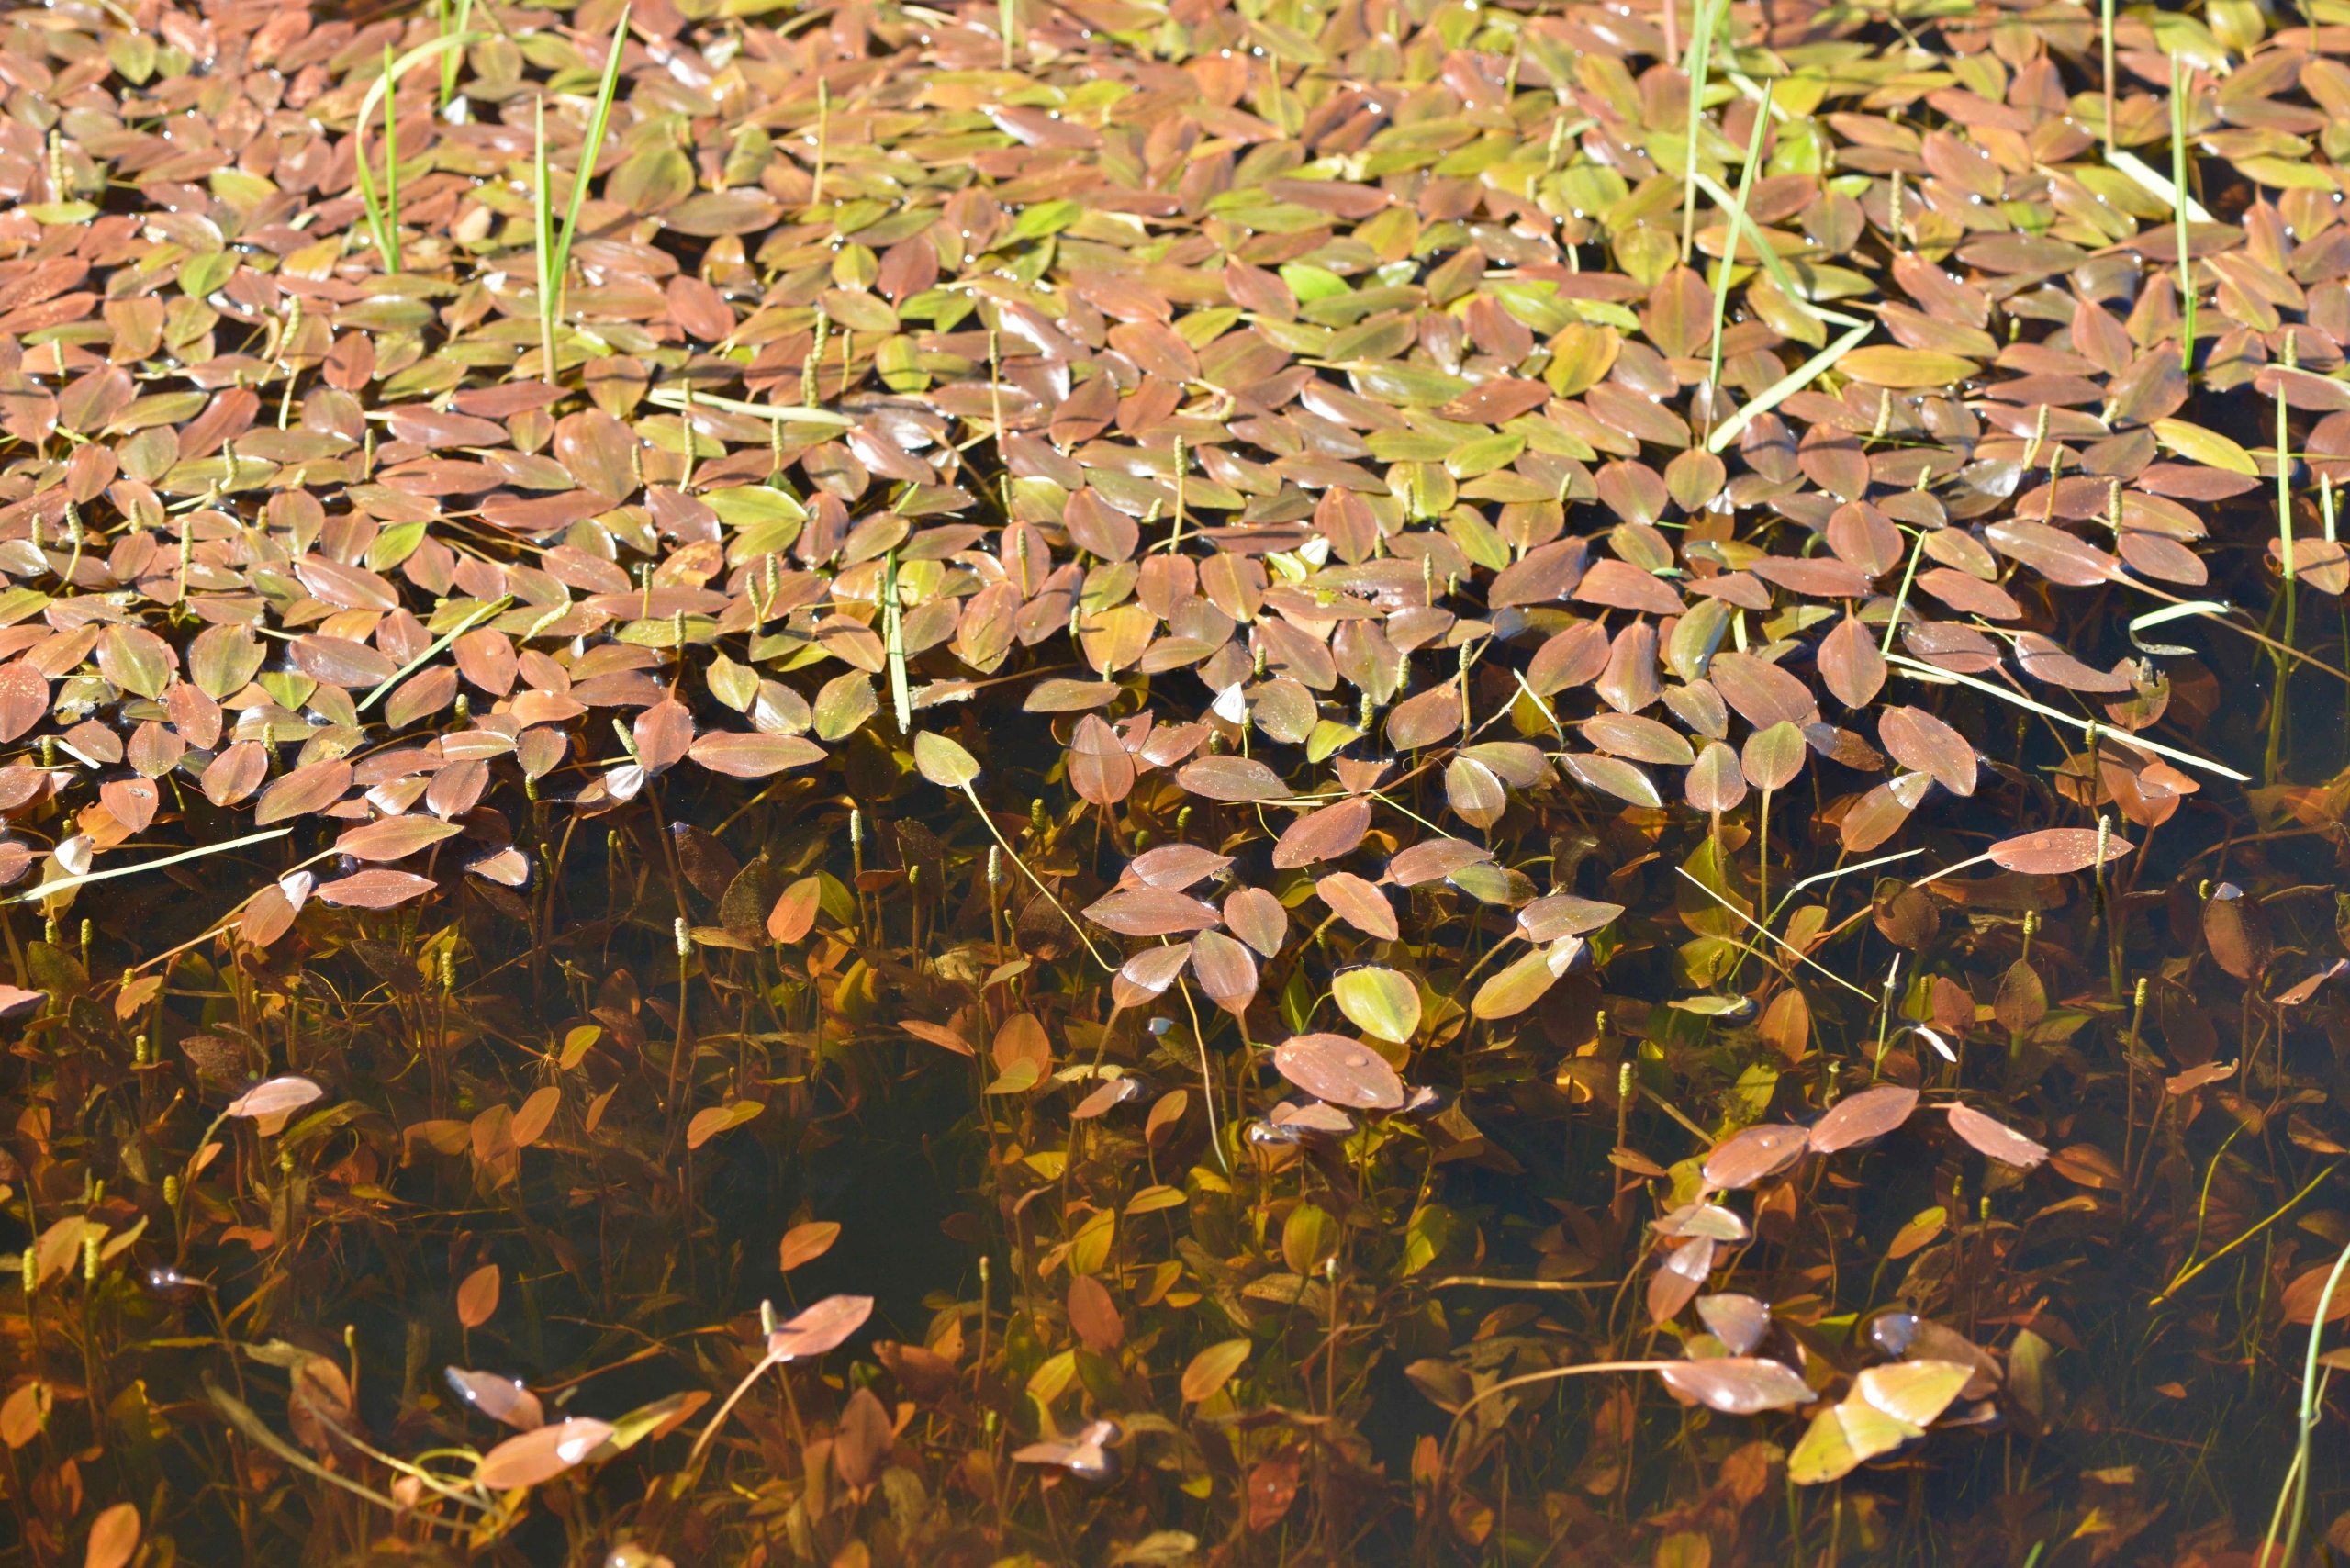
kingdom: Plantae
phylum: Tracheophyta
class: Liliopsida
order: Alismatales
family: Potamogetonaceae
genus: Potamogeton
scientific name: Potamogeton polygonifolius
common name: Aflangbladet vandaks
